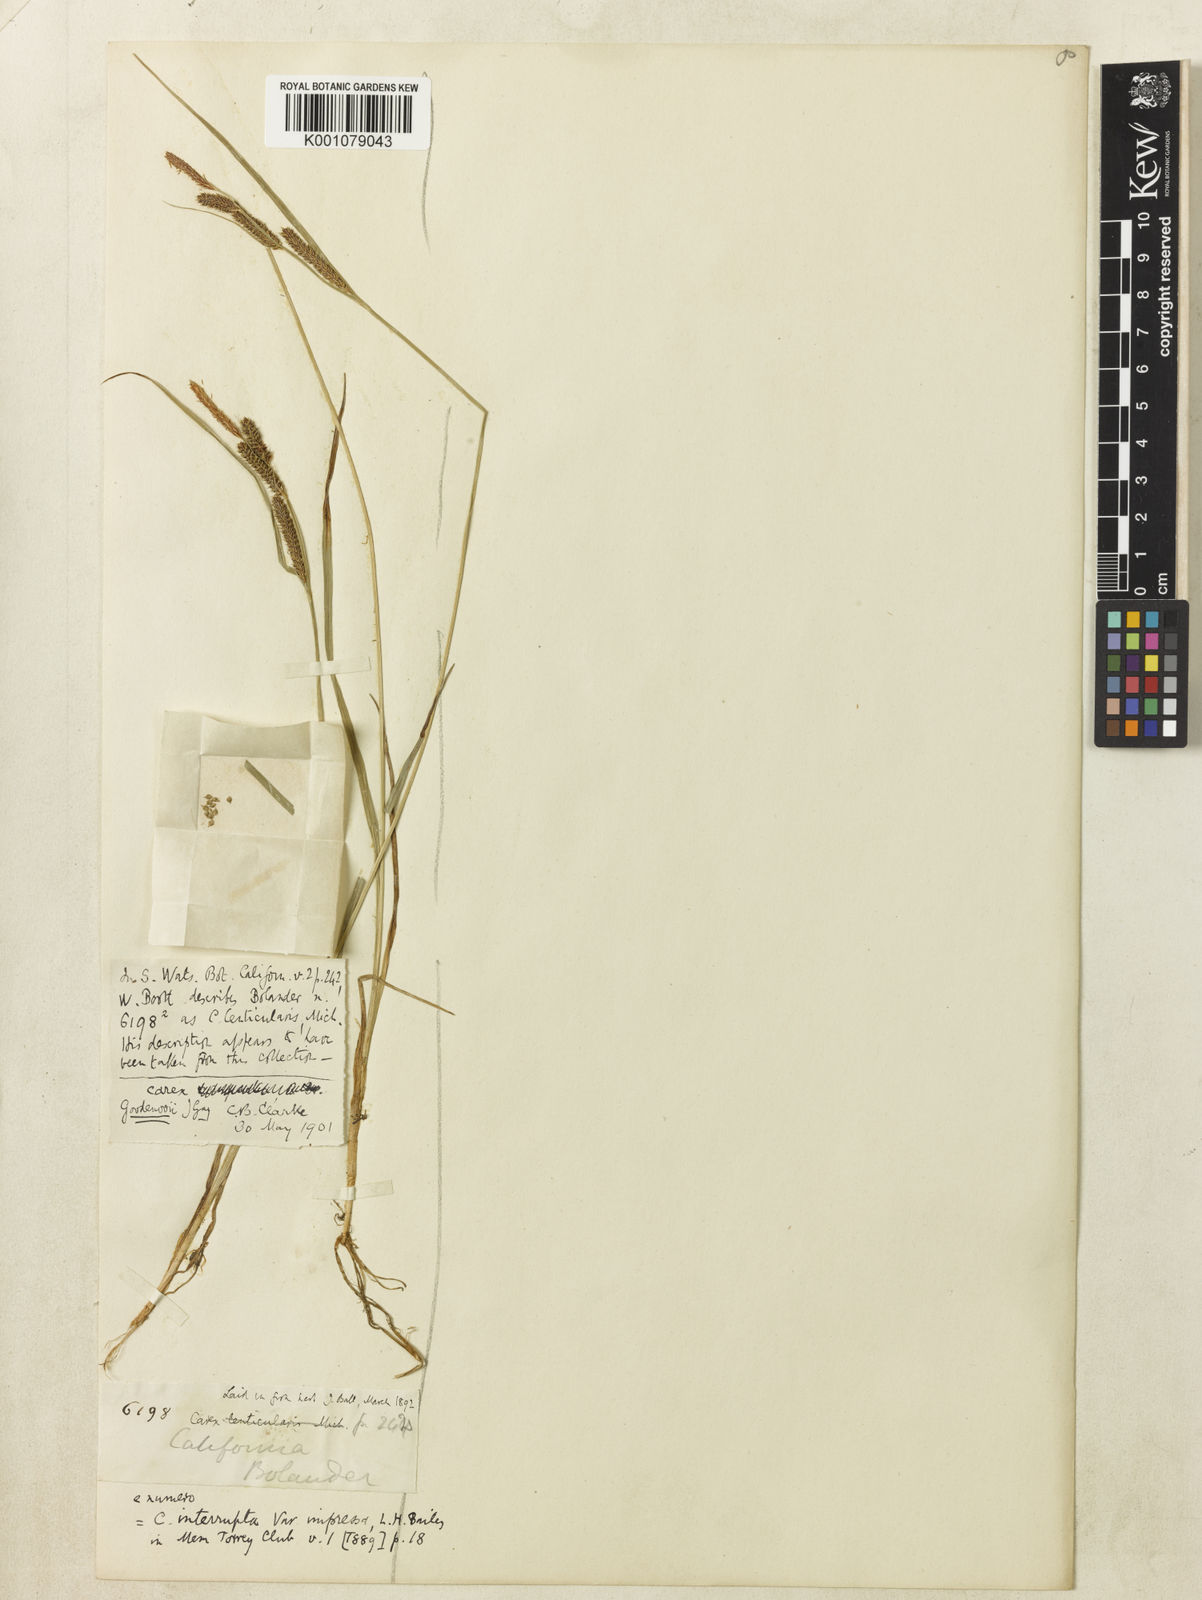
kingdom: Plantae
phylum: Tracheophyta
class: Liliopsida
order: Poales
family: Cyperaceae
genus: Carex
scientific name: Carex lenticularis
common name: Lakeshore sedge
